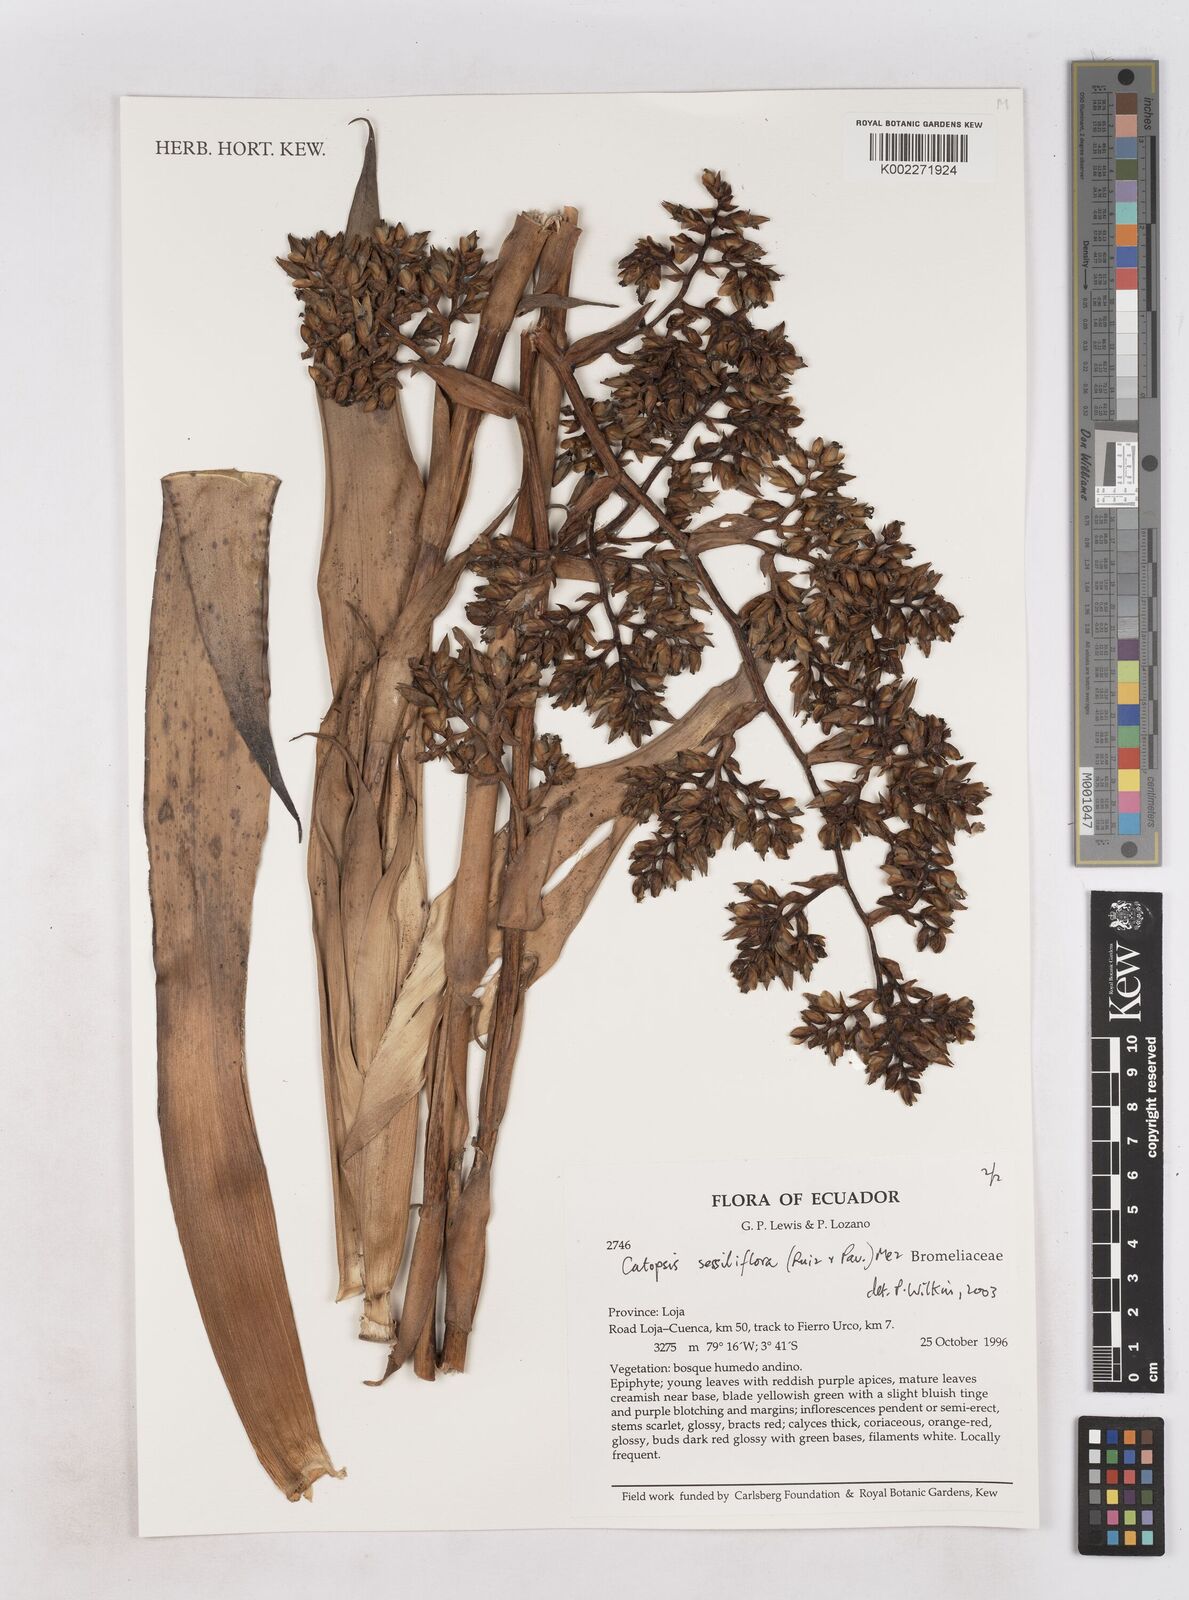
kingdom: Plantae
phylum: Tracheophyta
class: Liliopsida
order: Poales
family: Bromeliaceae
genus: Catopsis
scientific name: Catopsis sessiliflora
